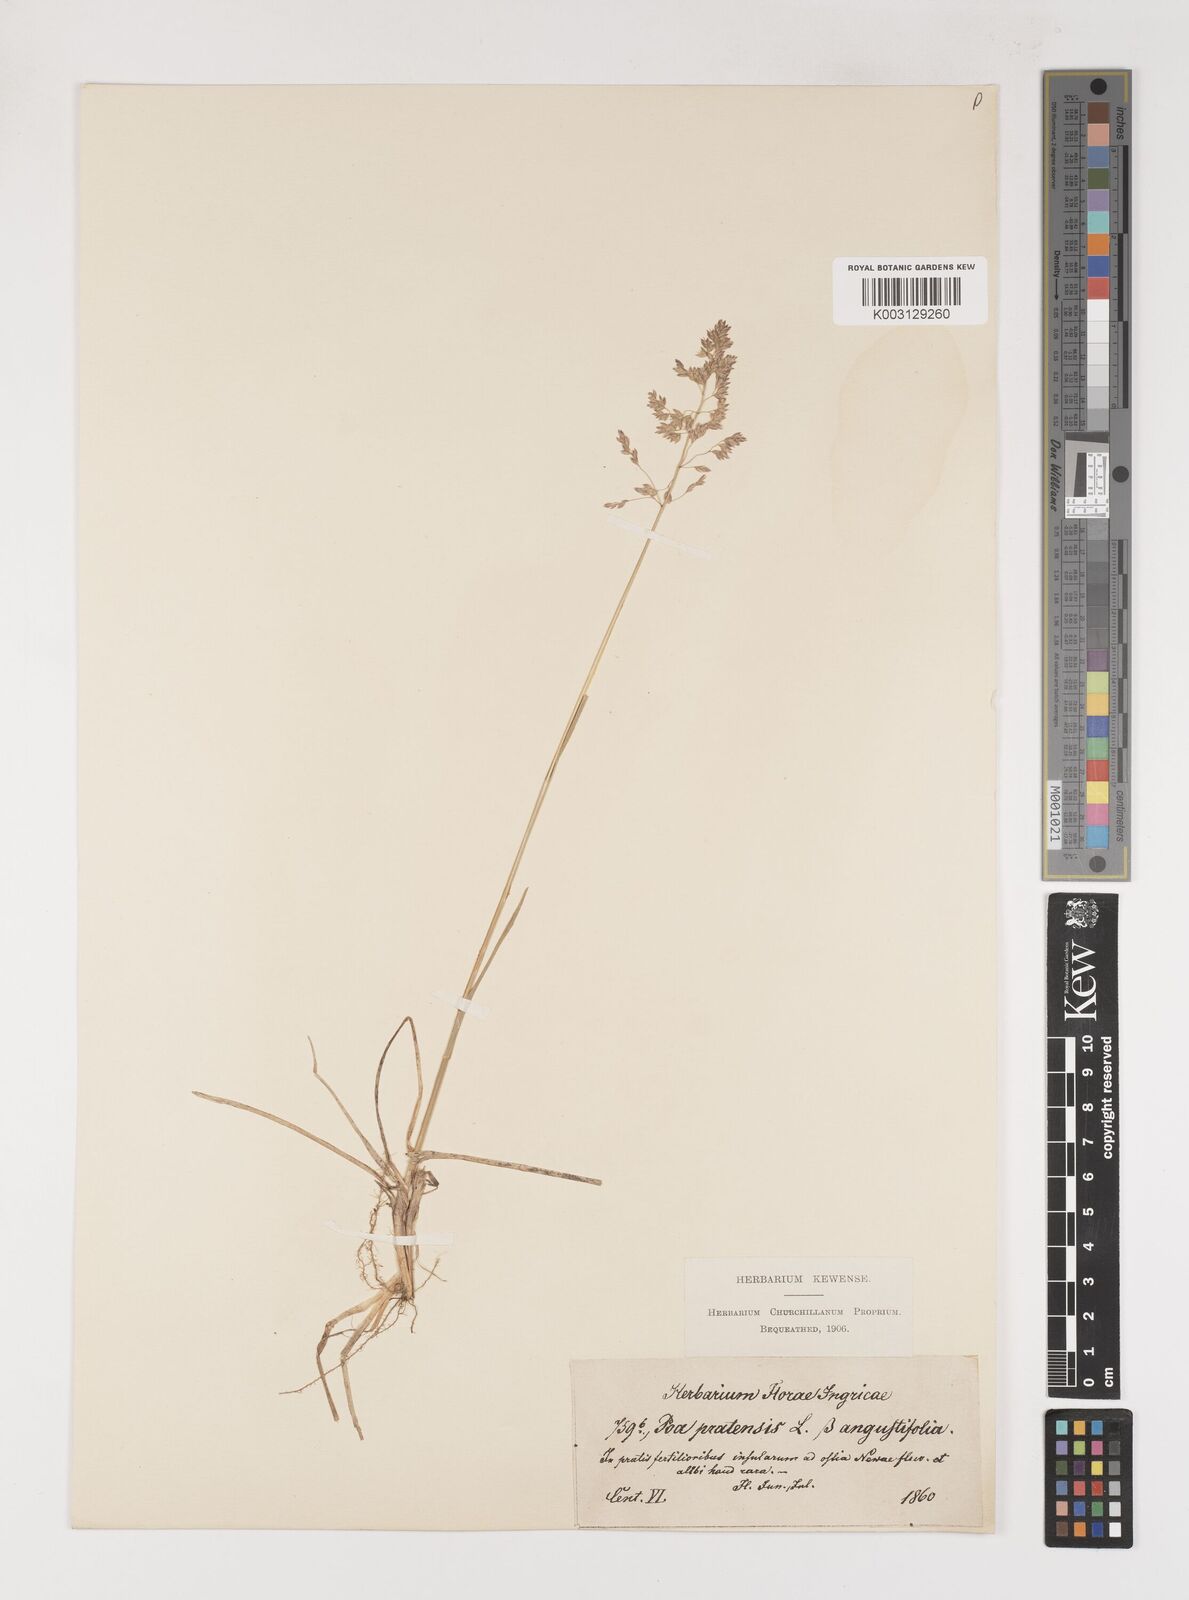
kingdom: Plantae
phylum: Tracheophyta
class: Liliopsida
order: Poales
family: Poaceae
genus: Poa
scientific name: Poa angustifolia
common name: Narrow-leaved meadow-grass
